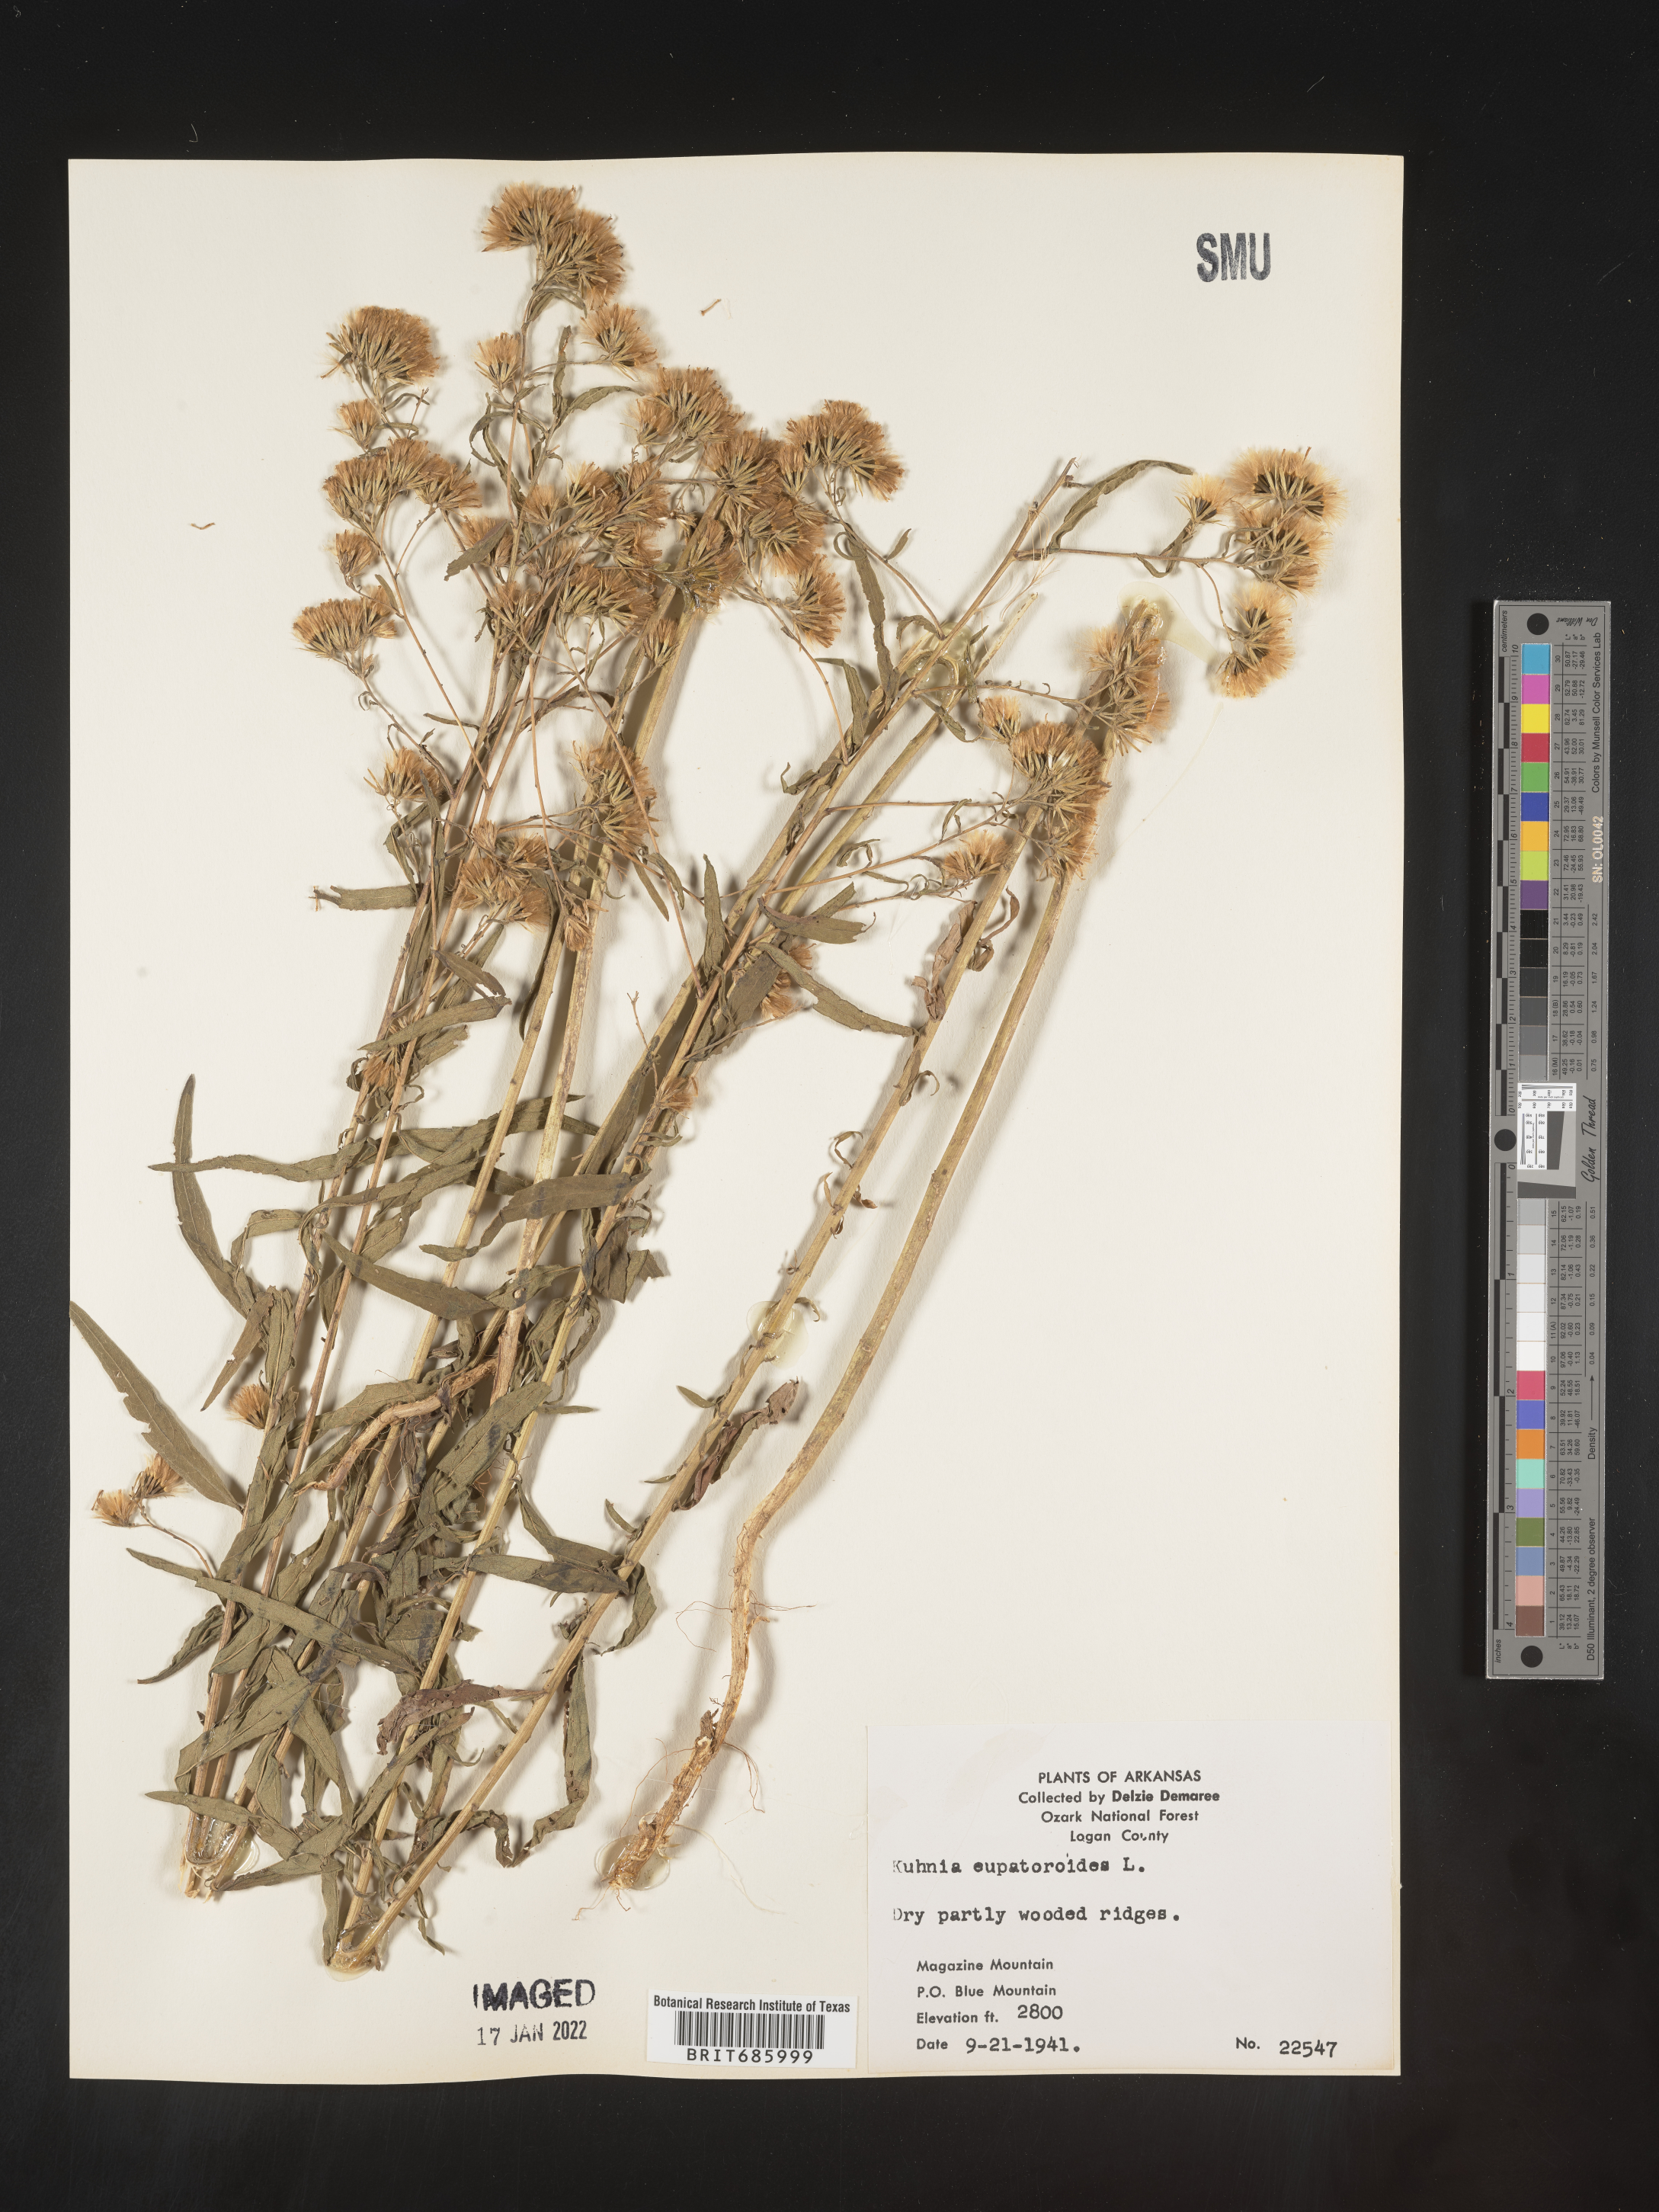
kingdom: Plantae
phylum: Tracheophyta
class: Magnoliopsida
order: Asterales
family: Asteraceae
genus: Brickellia
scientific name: Brickellia eupatorioides
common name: False boneset
